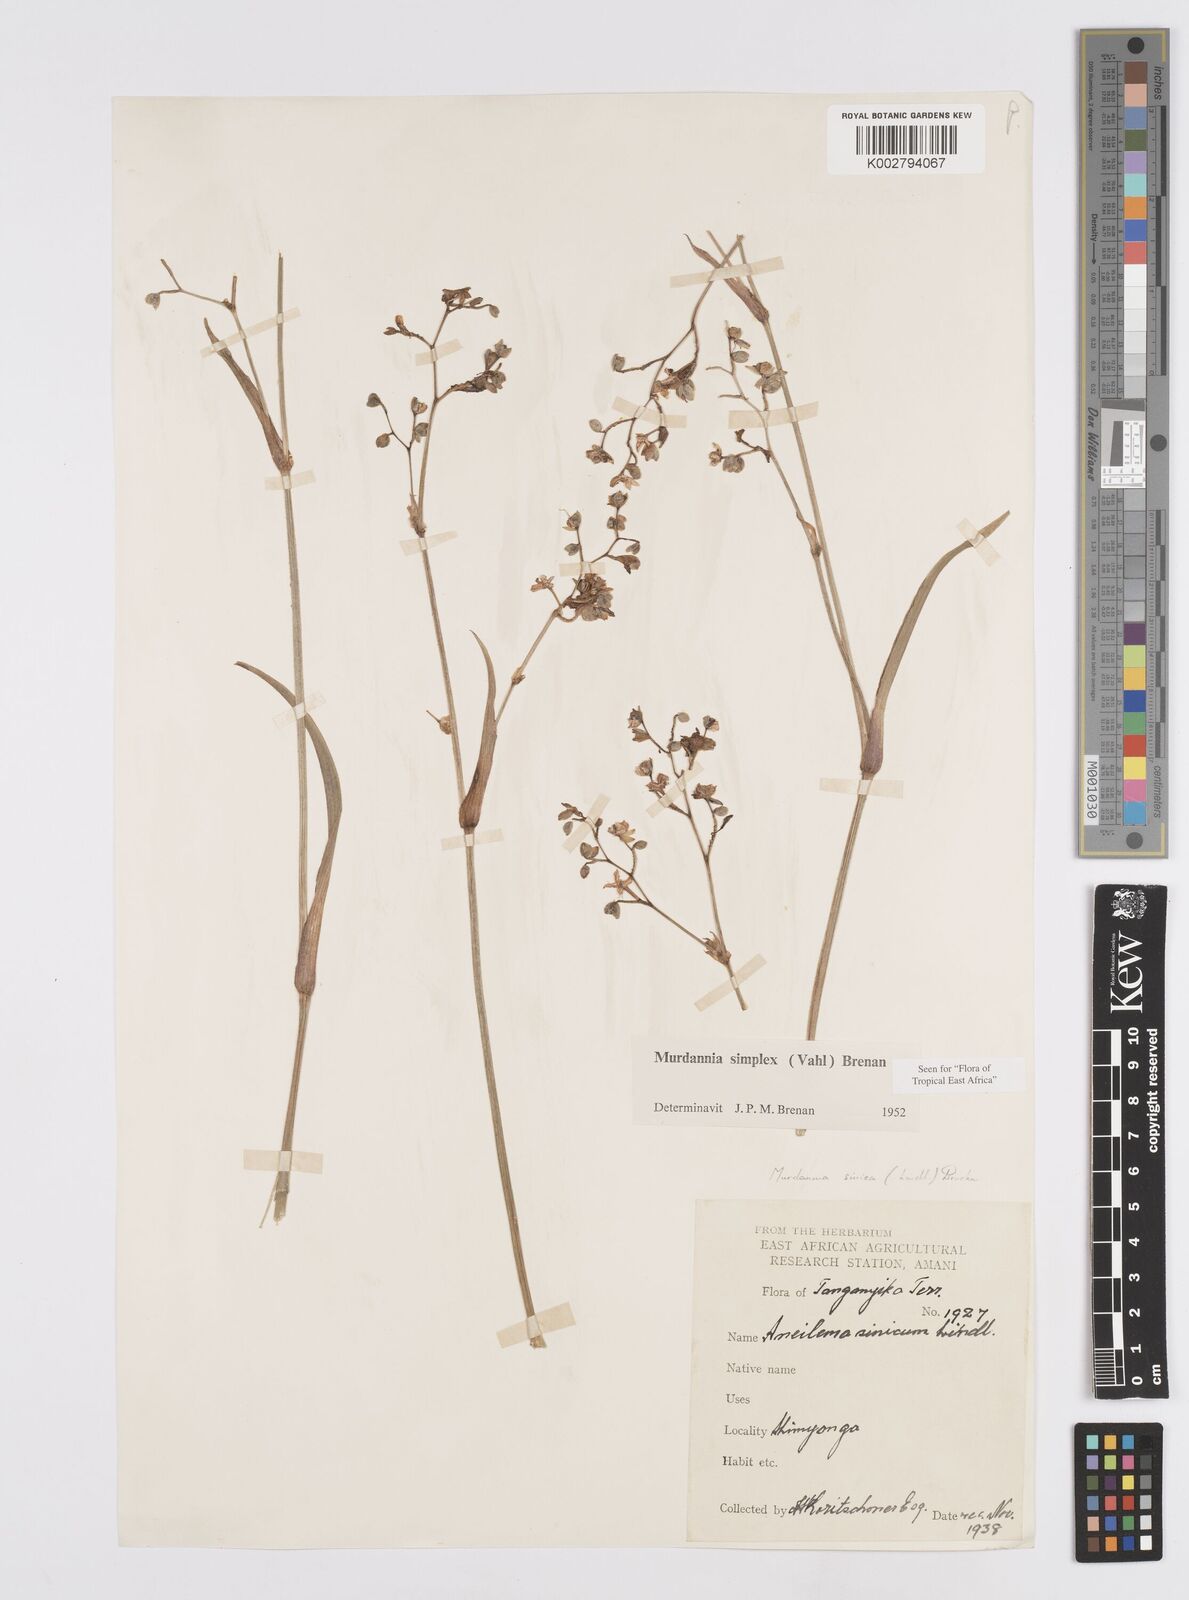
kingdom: Plantae
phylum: Tracheophyta
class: Liliopsida
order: Commelinales
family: Commelinaceae
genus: Murdannia
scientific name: Murdannia simplex
